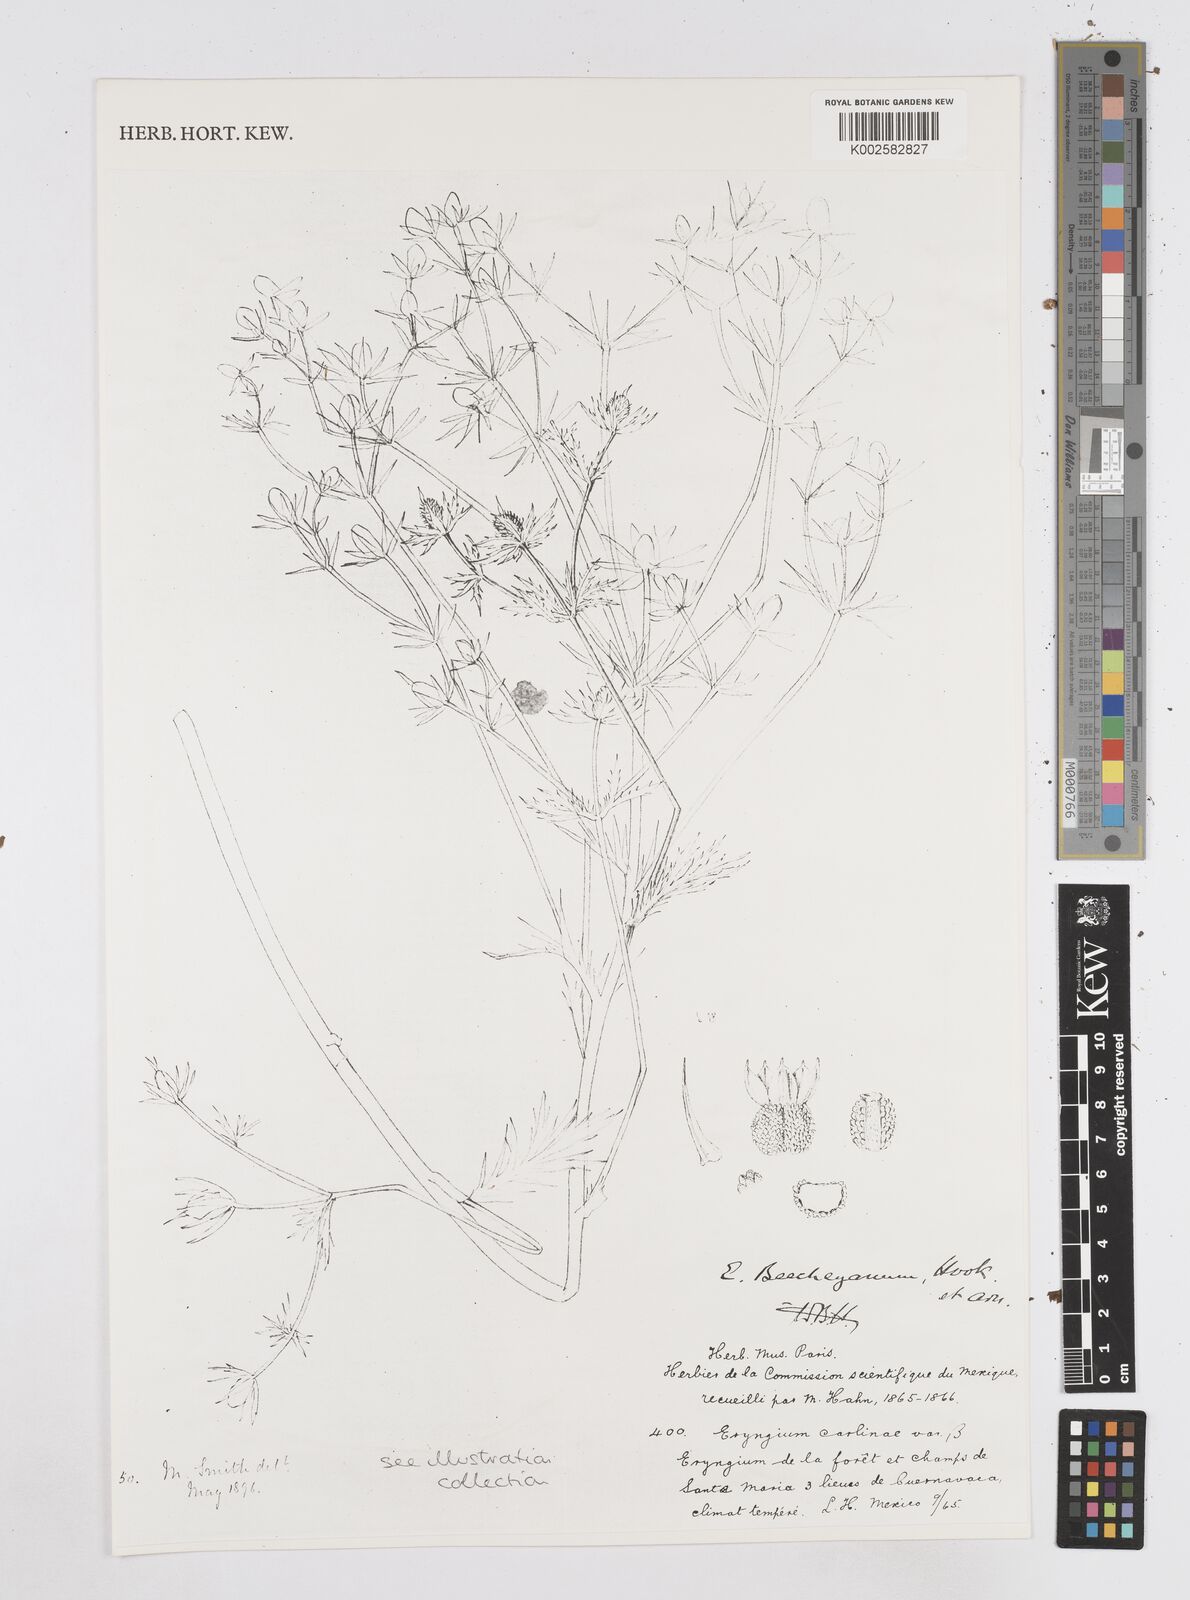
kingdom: Plantae
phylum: Tracheophyta
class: Magnoliopsida
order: Apiales
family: Apiaceae
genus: Eryngium
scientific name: Eryngium beecheyanum
